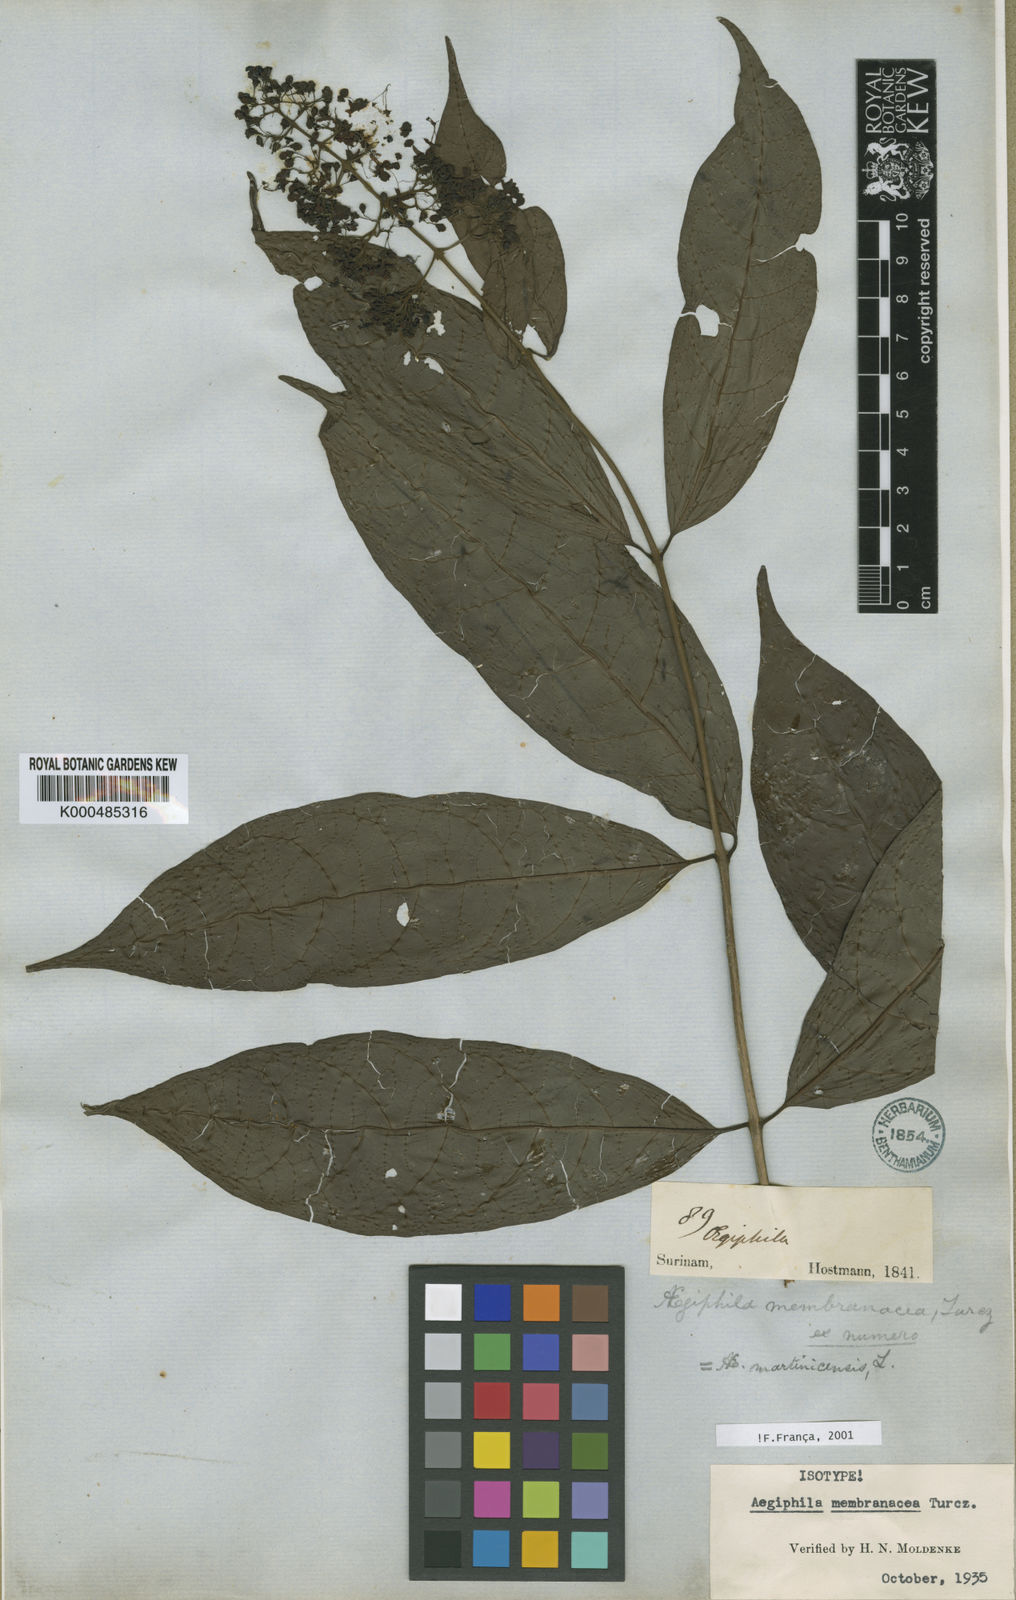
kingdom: Plantae
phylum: Tracheophyta
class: Magnoliopsida
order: Lamiales
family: Lamiaceae
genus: Aegiphila
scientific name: Aegiphila membranacea
